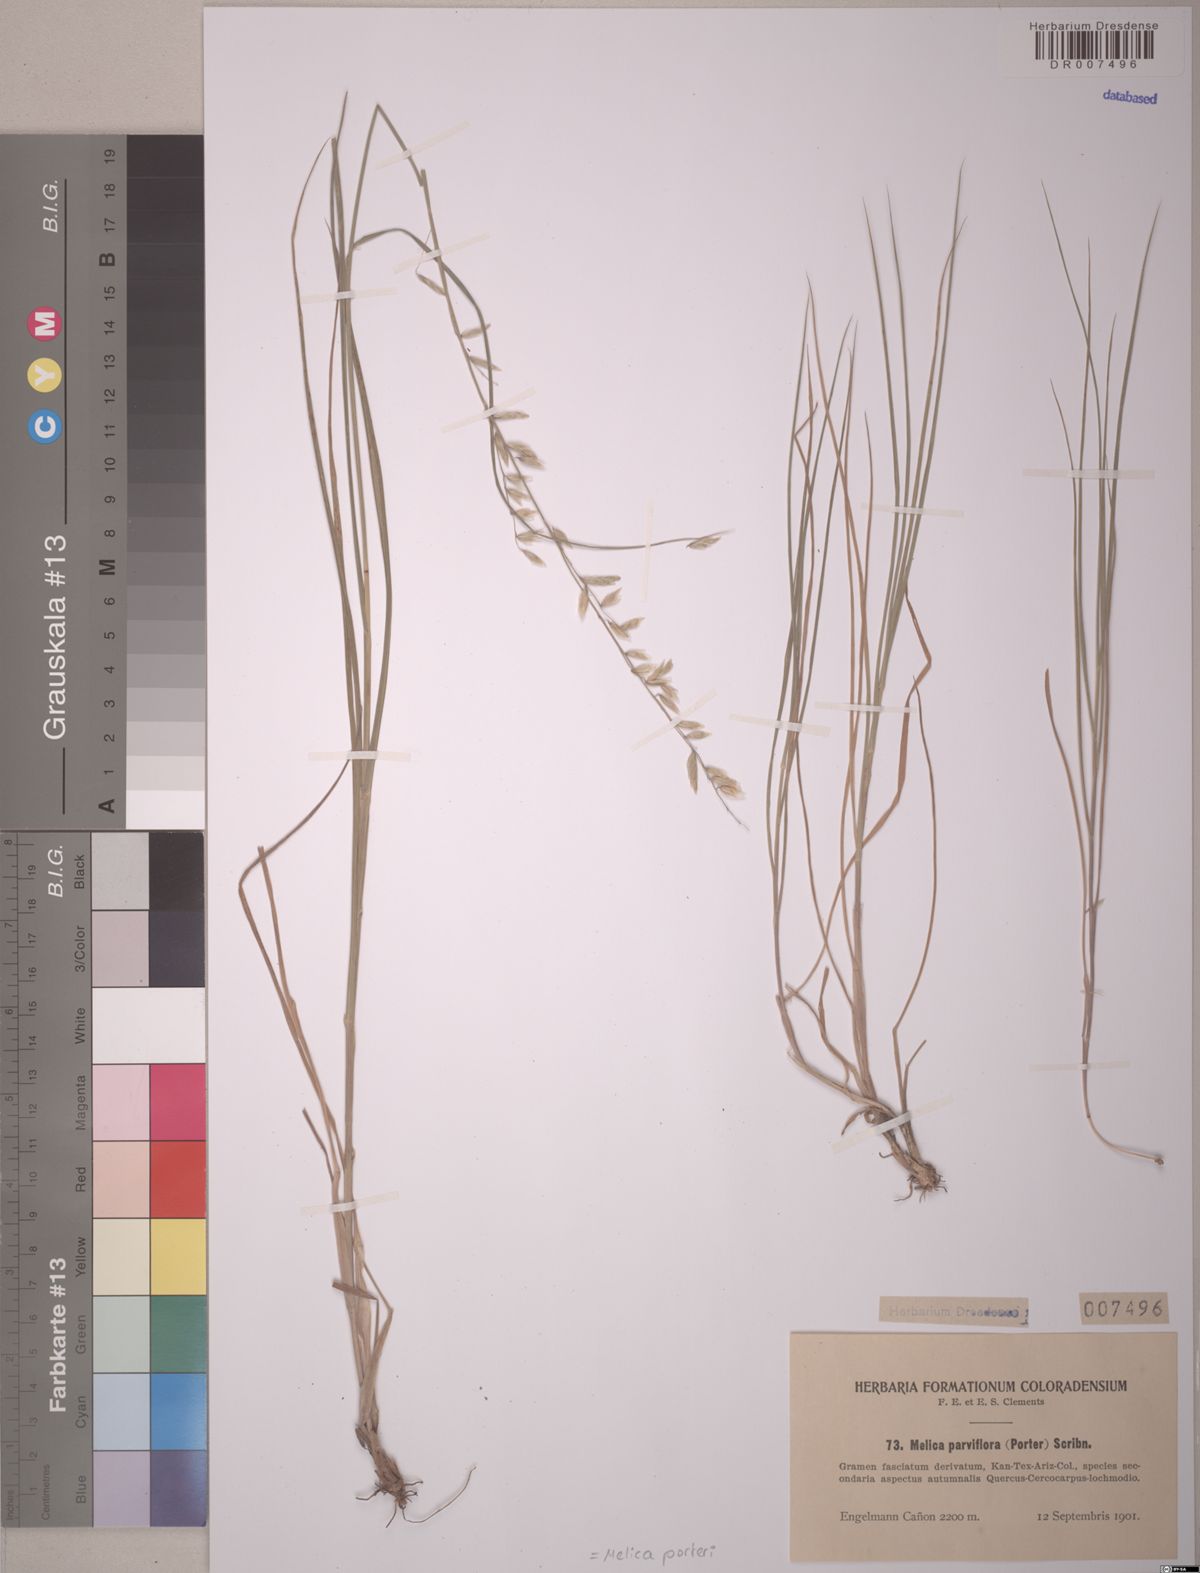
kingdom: Plantae
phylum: Tracheophyta
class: Liliopsida
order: Poales
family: Poaceae
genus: Melica
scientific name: Melica porteri
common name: Porter's melic
